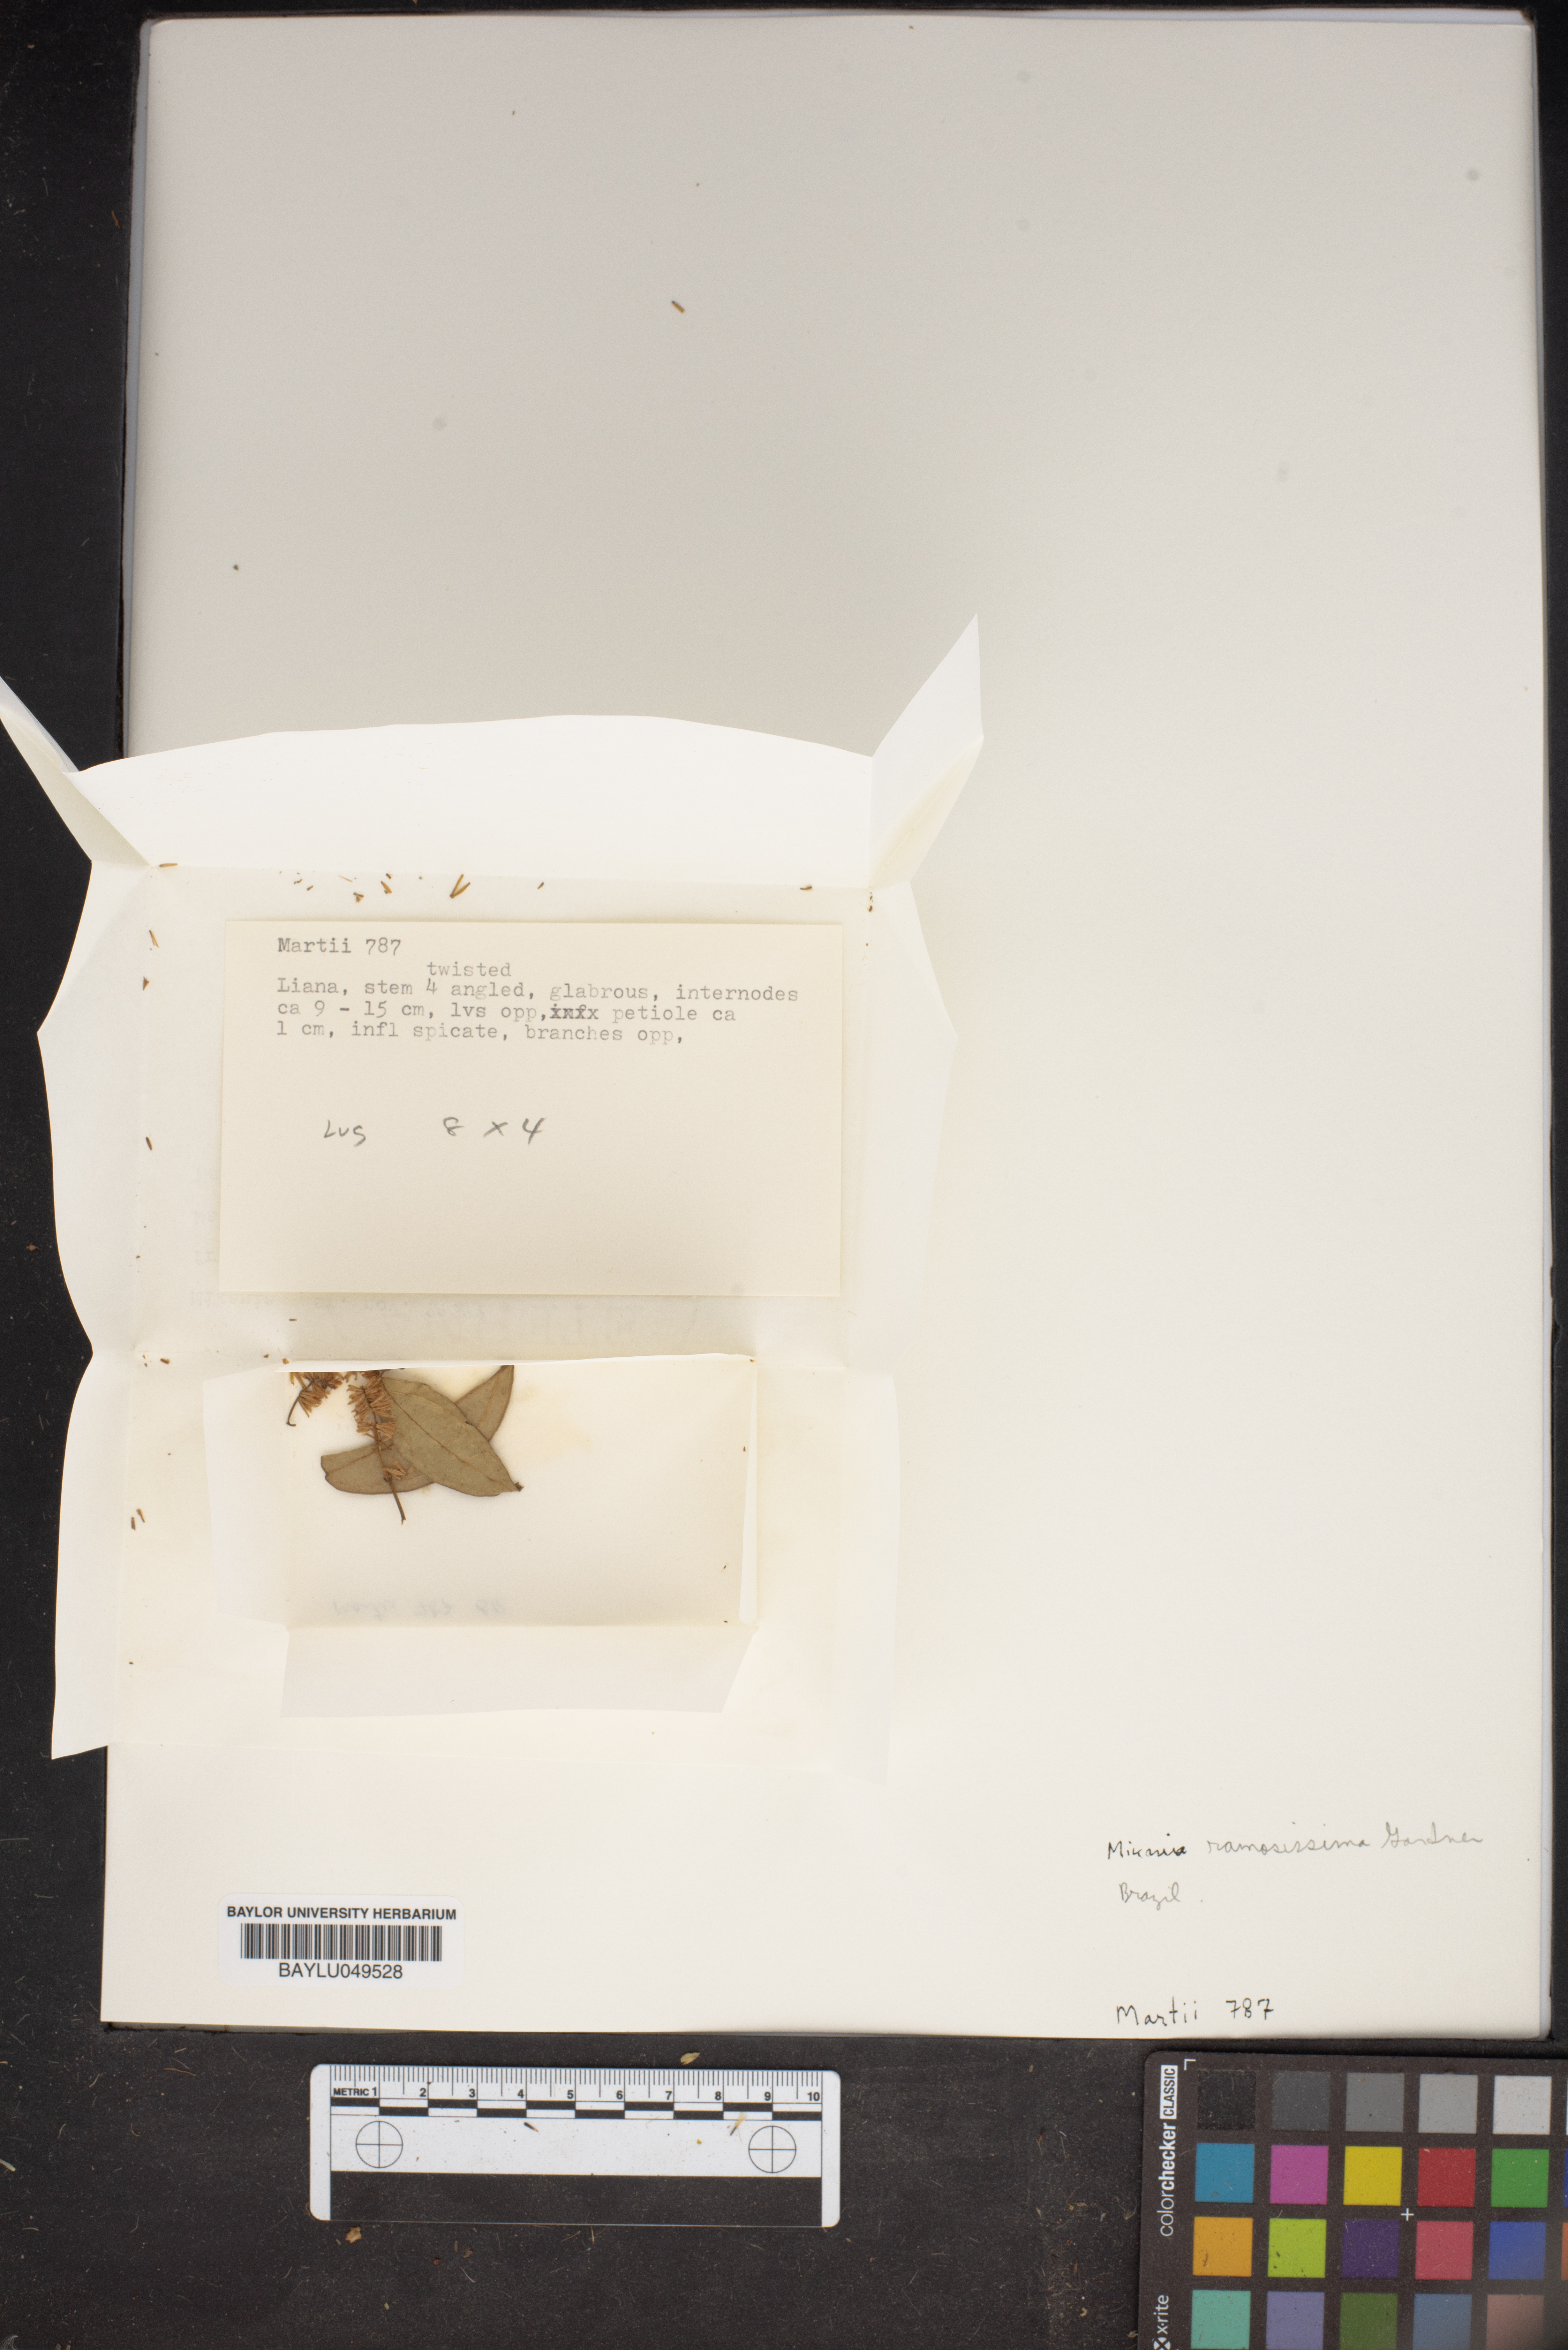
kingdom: Plantae
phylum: Tracheophyta
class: Magnoliopsida
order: Asterales
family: Asteraceae
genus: Mikania
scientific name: Mikania ramosissima
